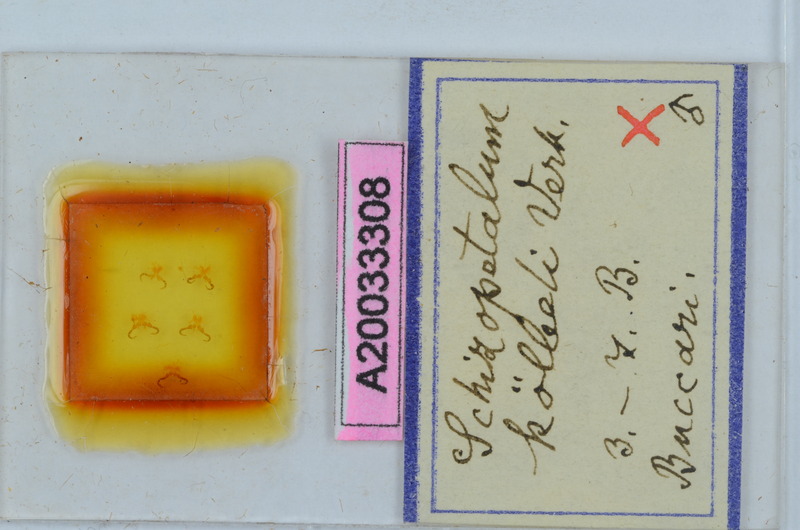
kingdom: Animalia
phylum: Arthropoda
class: Diplopoda
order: Callipodida
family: Schizopetalidae
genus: Schizopetalum
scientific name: Schizopetalum
